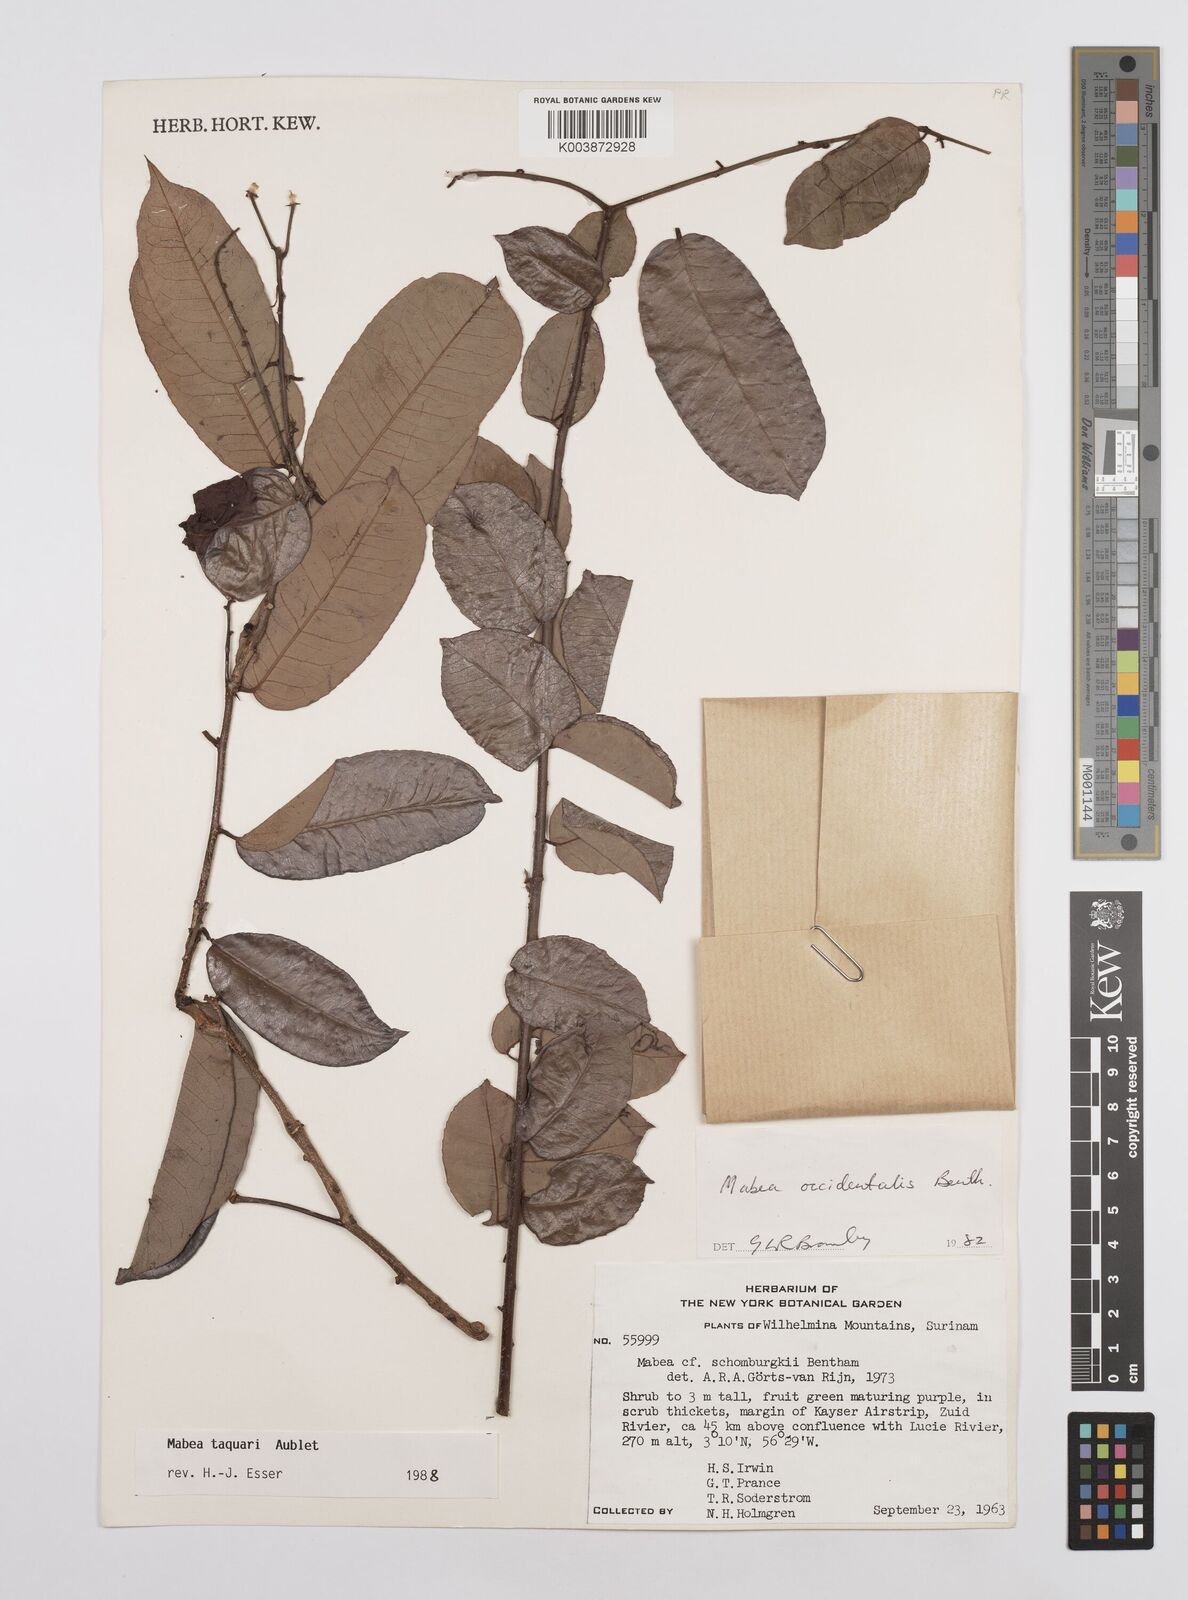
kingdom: Plantae
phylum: Tracheophyta
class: Magnoliopsida
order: Malpighiales
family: Euphorbiaceae
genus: Mabea
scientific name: Mabea taquari
